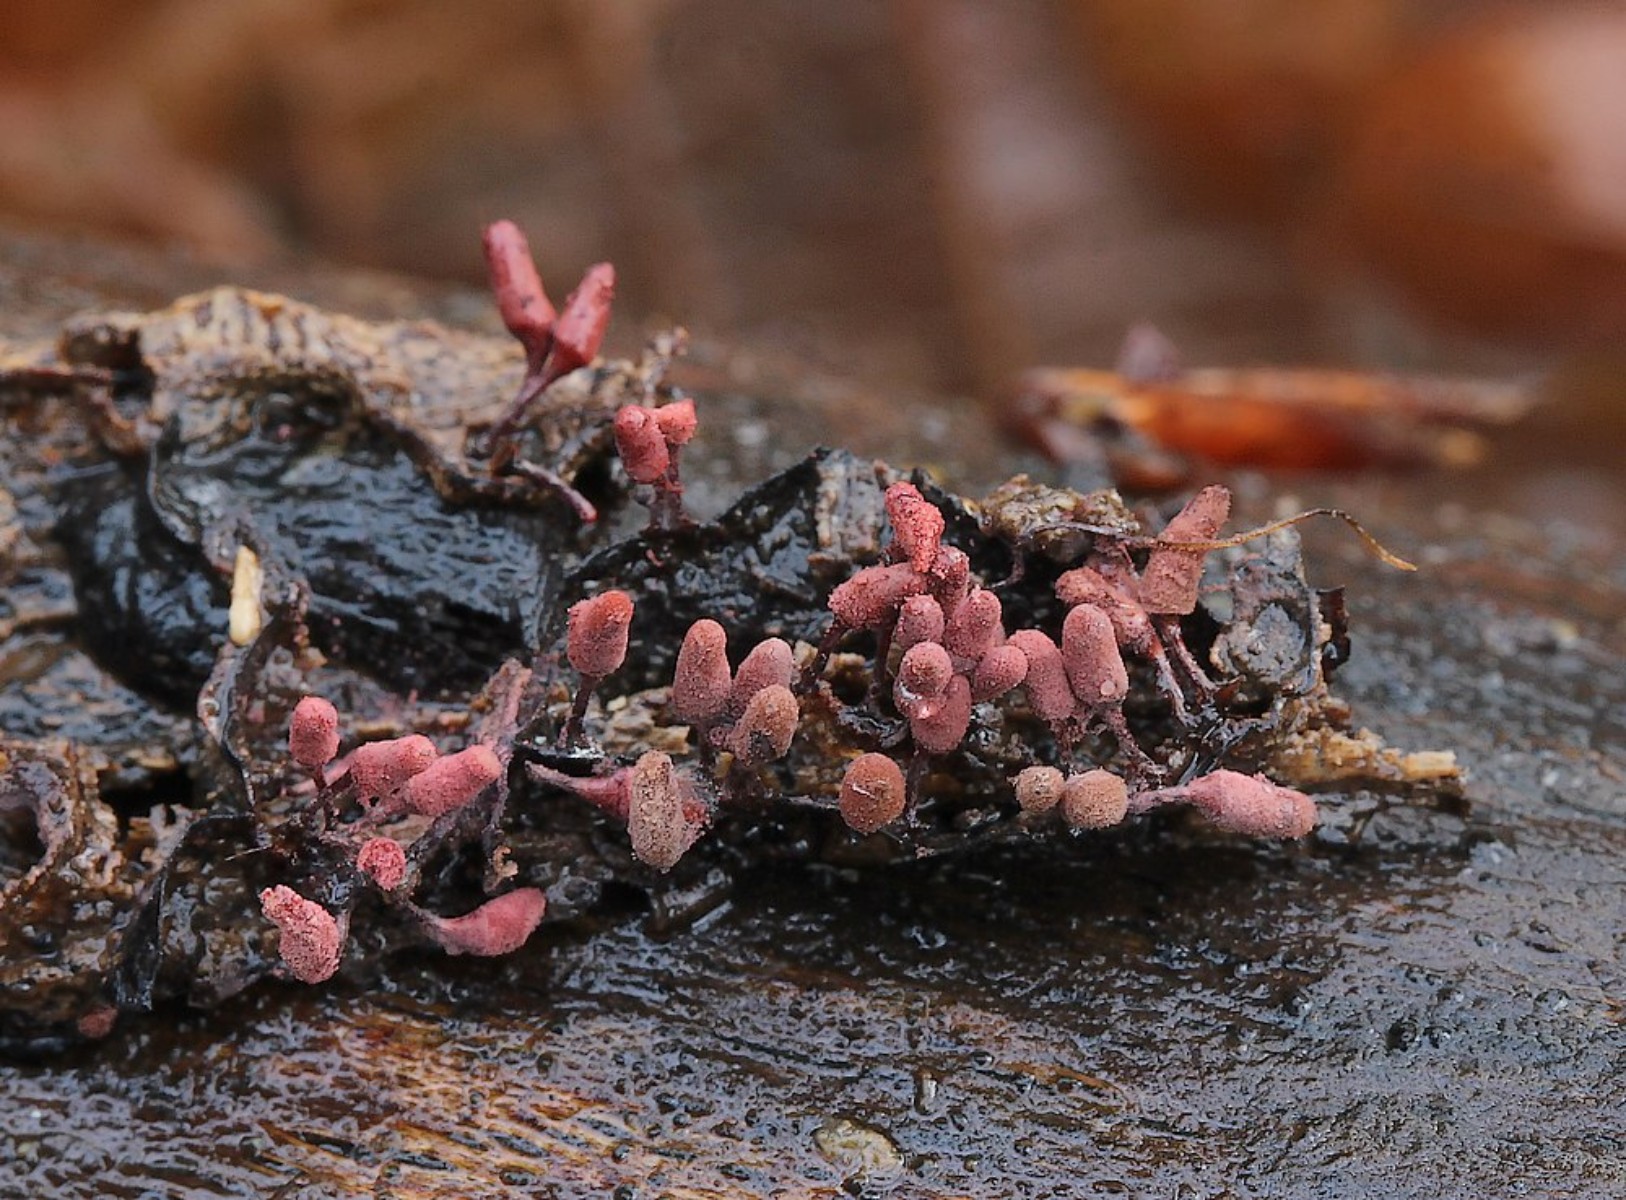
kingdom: Protozoa
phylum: Mycetozoa
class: Myxomycetes
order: Trichiales
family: Arcyriaceae
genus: Arcyria
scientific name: Arcyria denudata
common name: karminrød skålsvøb
